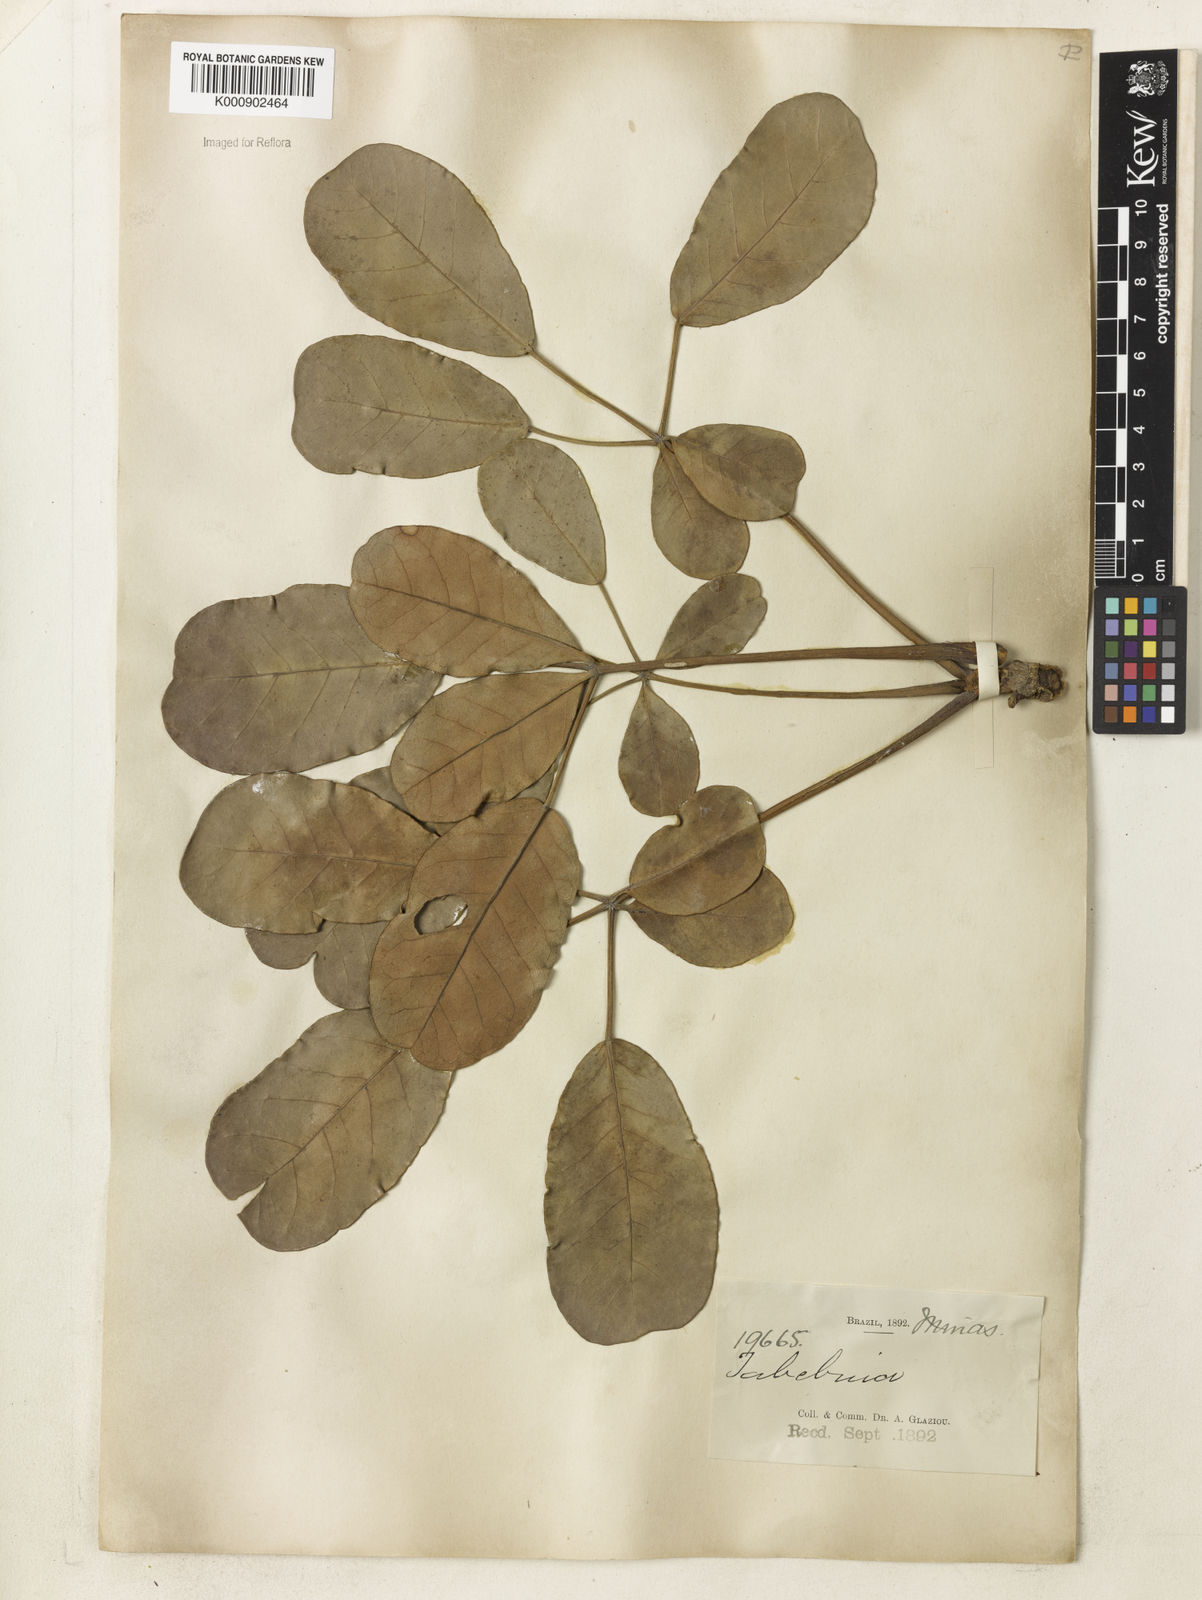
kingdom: Plantae
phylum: Tracheophyta
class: Magnoliopsida
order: Lamiales
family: Bignoniaceae
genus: Tabebuia
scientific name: Tabebuia aurea
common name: Caribbean trumpet-tree
